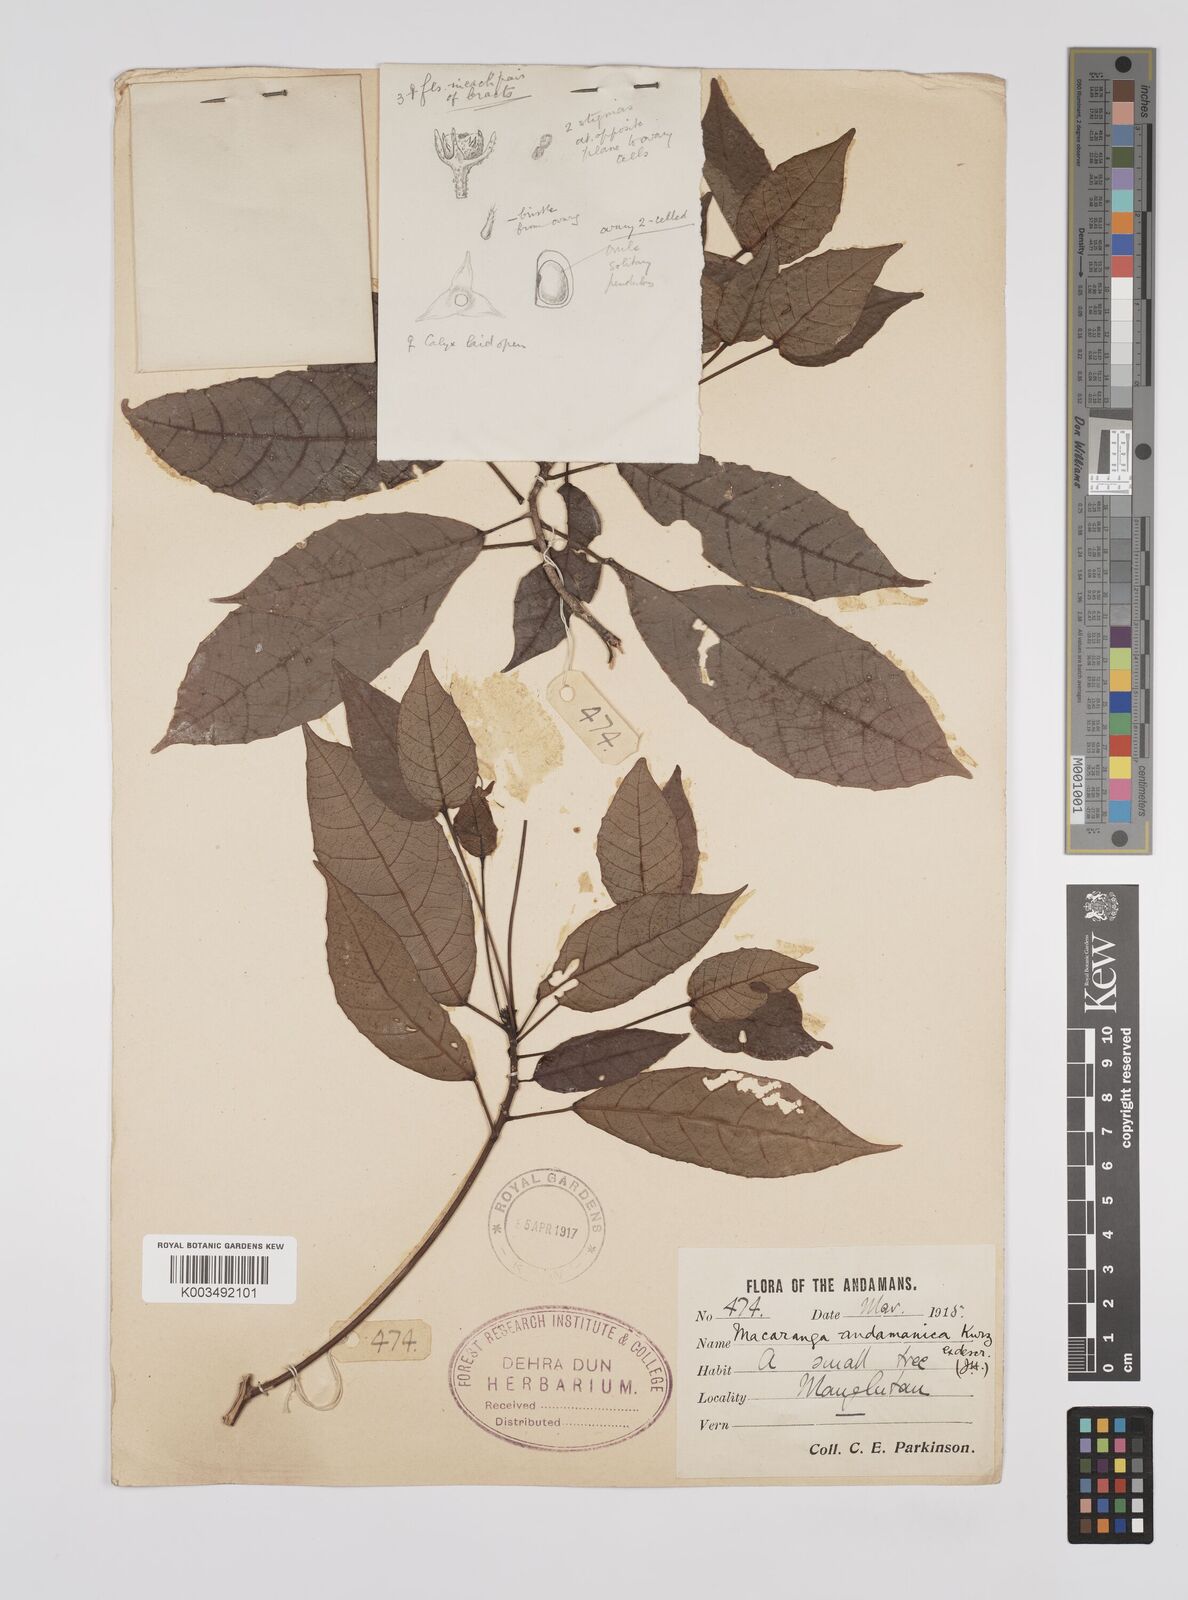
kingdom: Plantae
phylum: Tracheophyta
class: Magnoliopsida
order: Malpighiales
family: Euphorbiaceae
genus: Macaranga
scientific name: Macaranga andamanica
